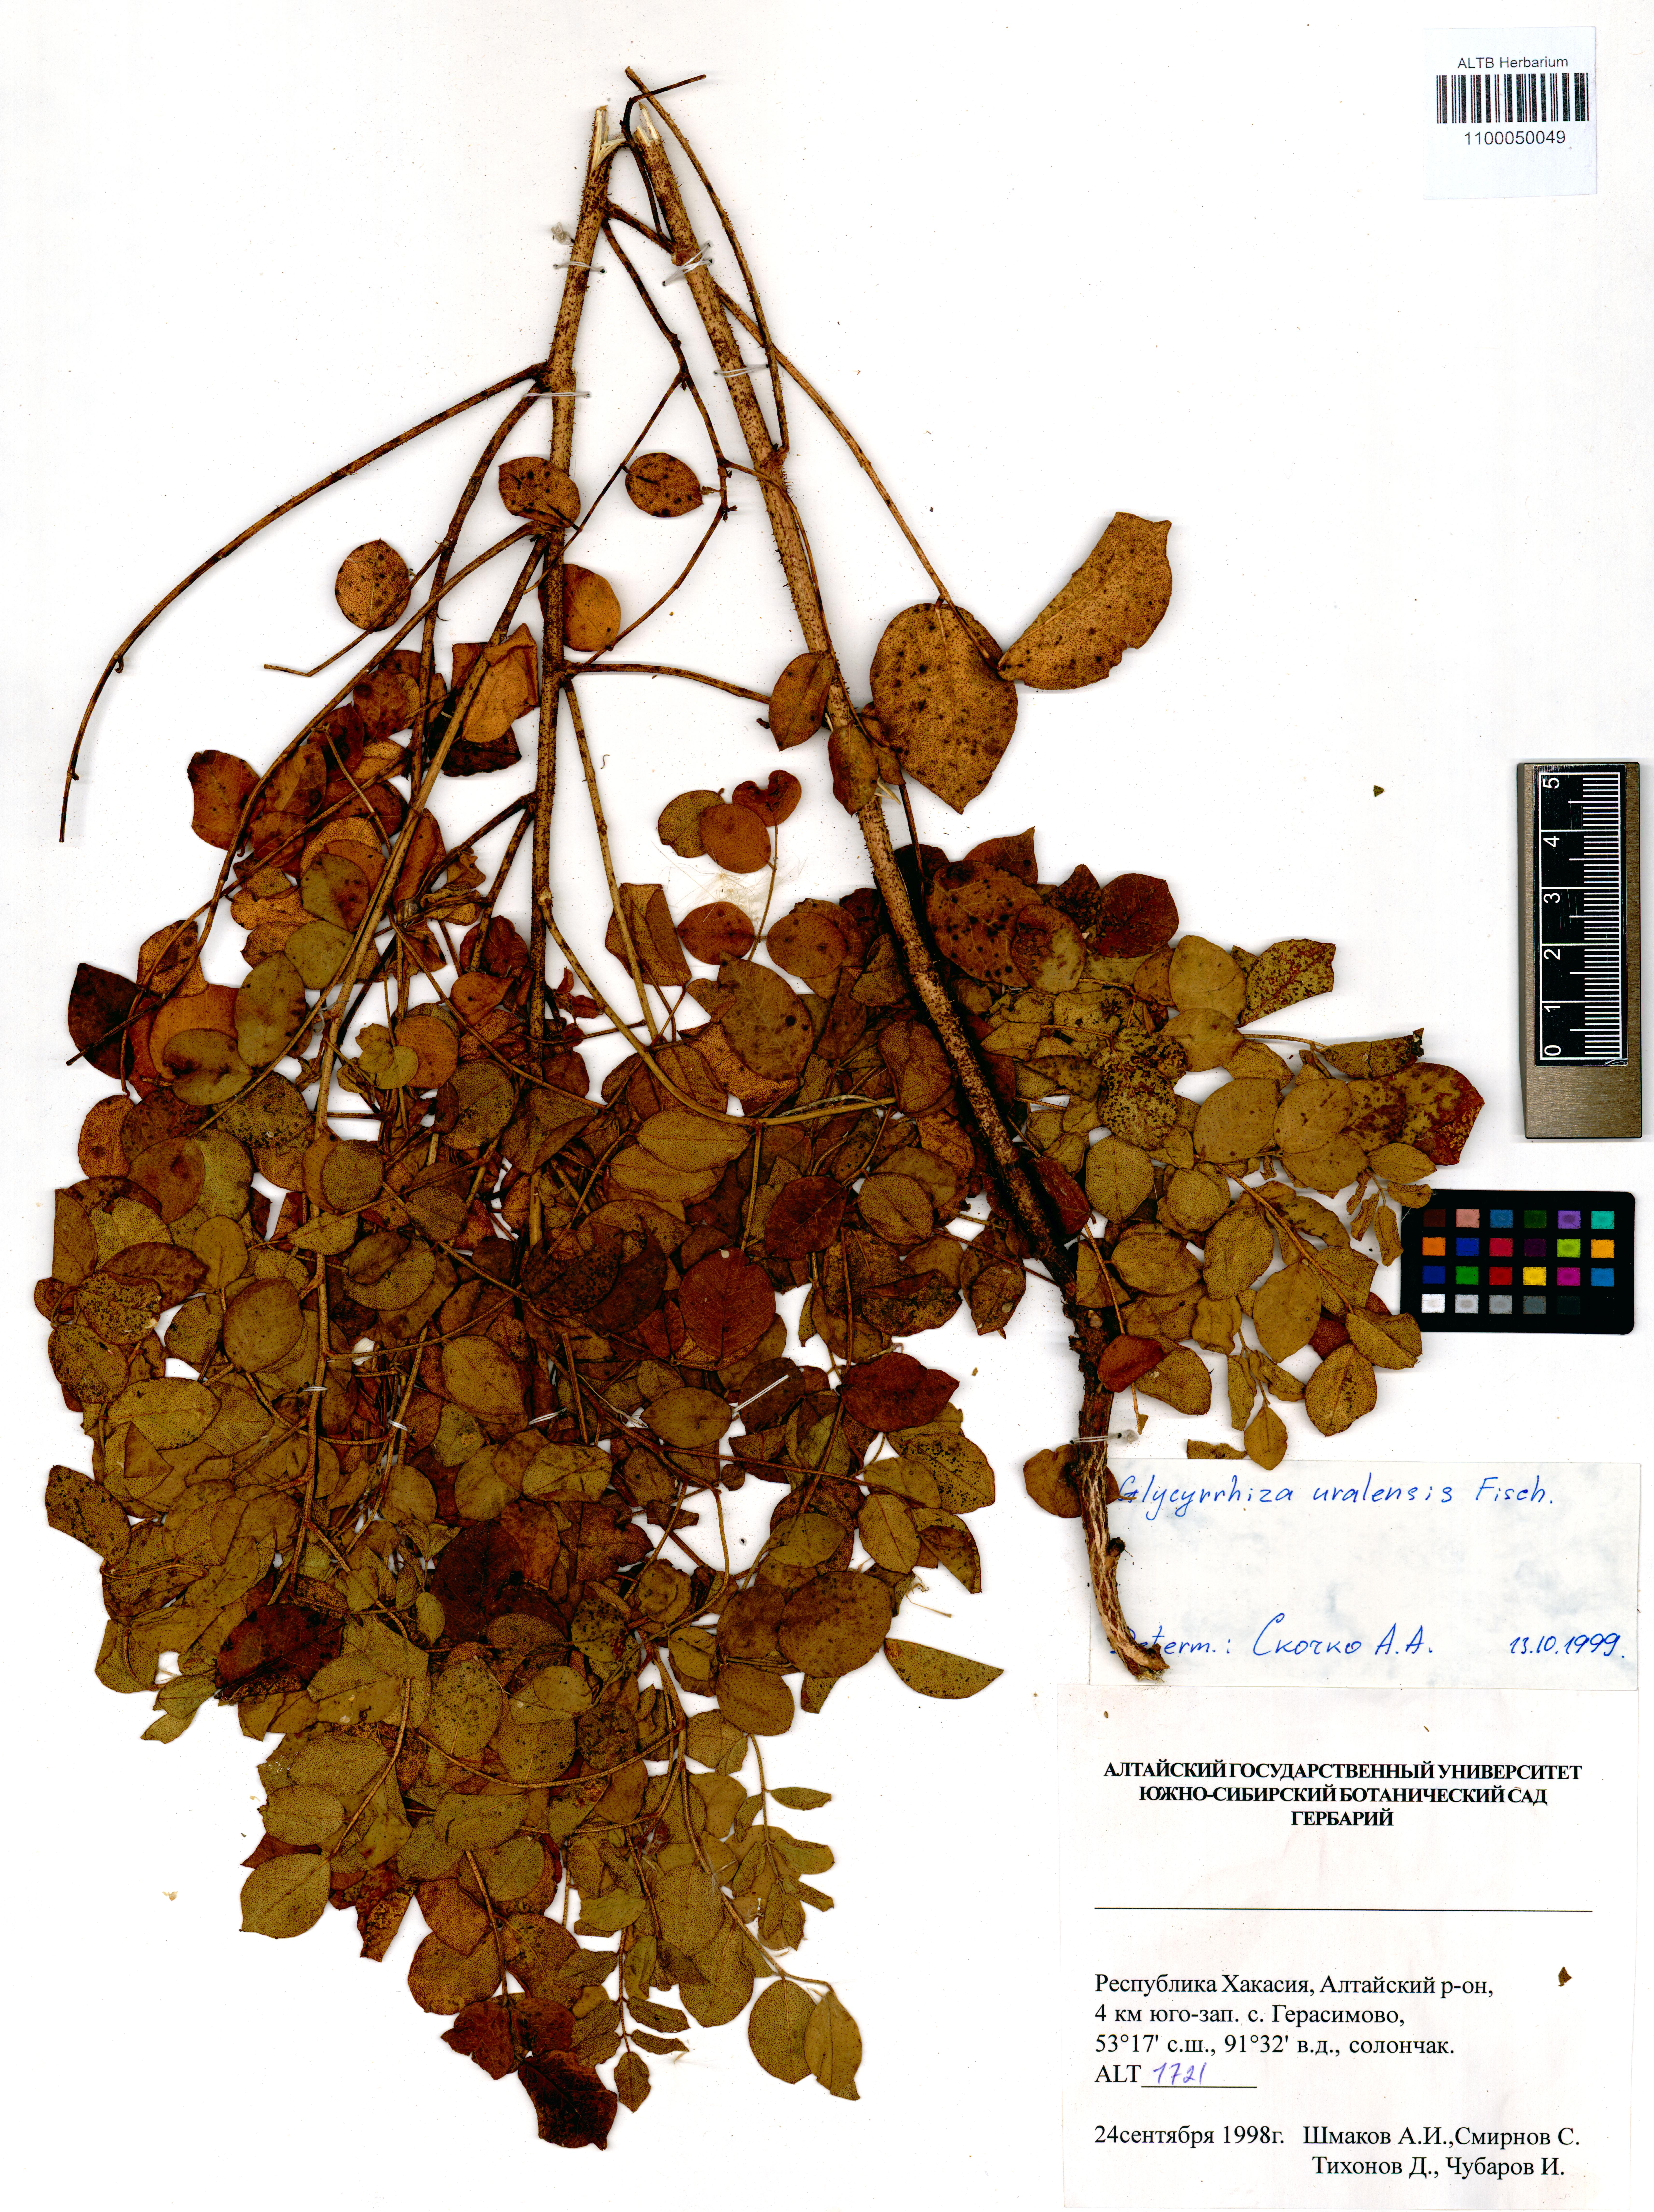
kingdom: Plantae
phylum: Tracheophyta
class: Magnoliopsida
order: Fabales
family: Fabaceae
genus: Glycyrrhiza
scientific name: Glycyrrhiza uralensis
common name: Chinese licorice
